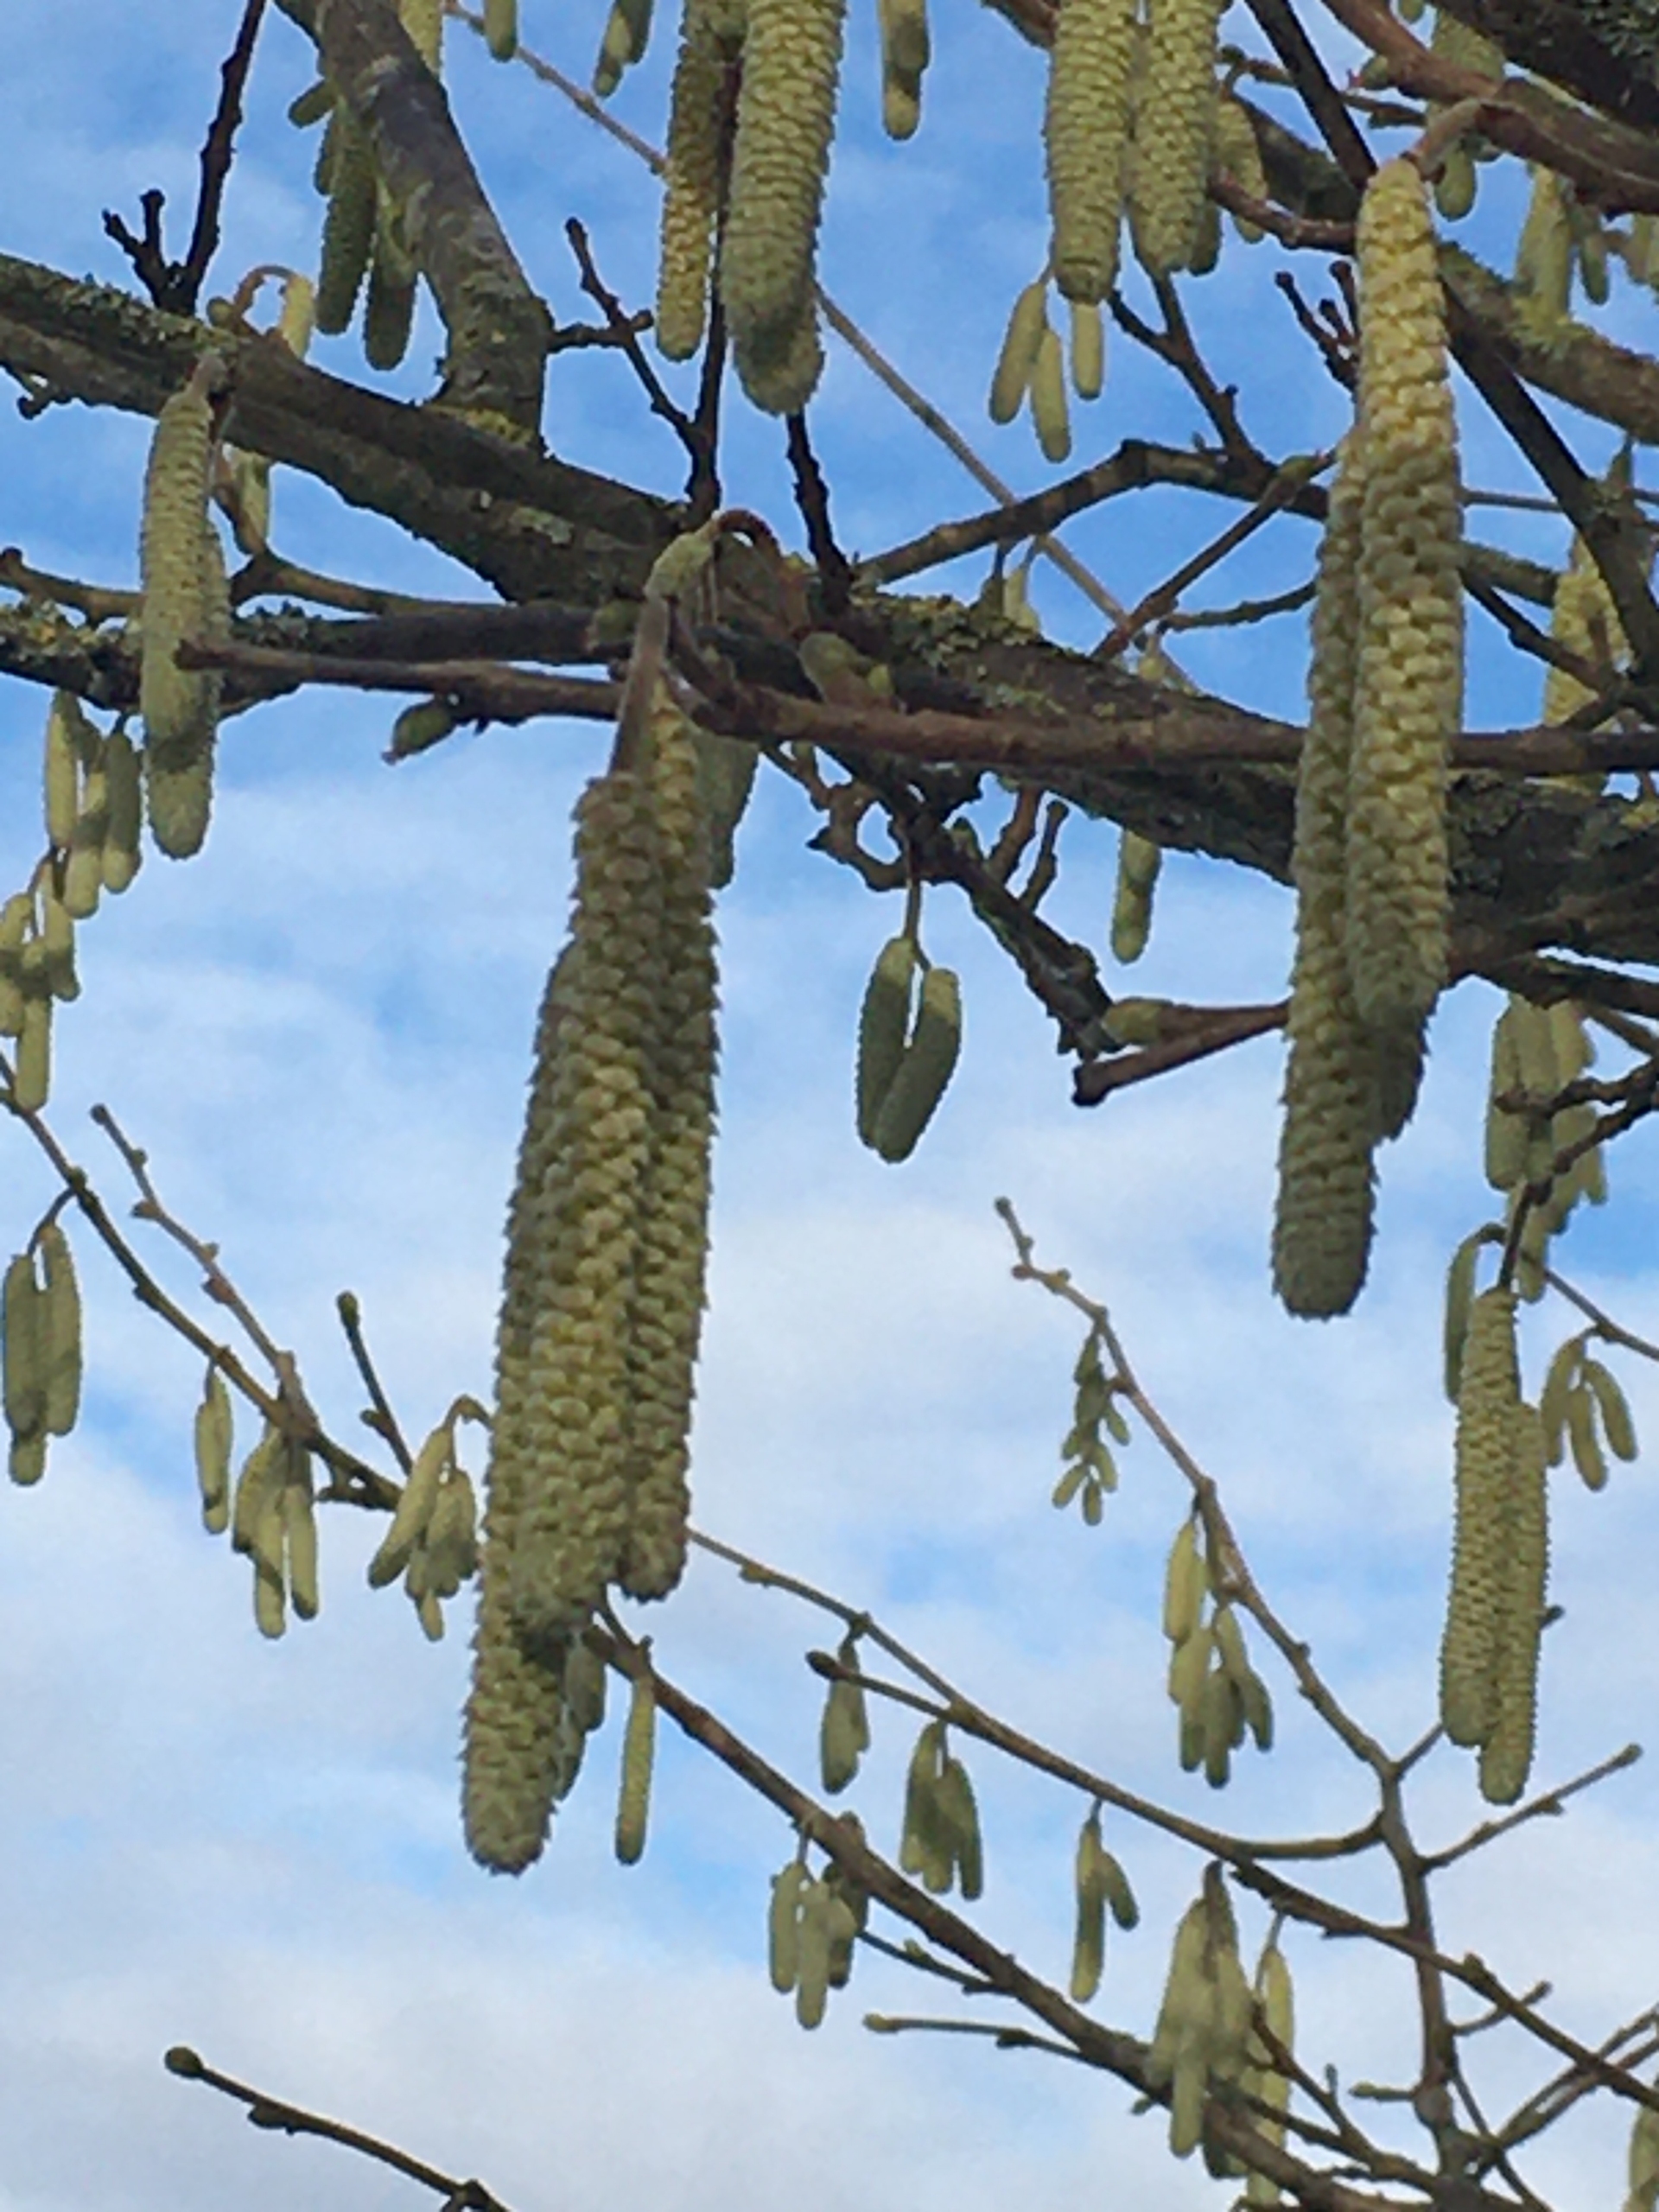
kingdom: Plantae
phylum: Tracheophyta
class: Magnoliopsida
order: Fagales
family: Betulaceae
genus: Corylus
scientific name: Corylus avellana
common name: Hassel
